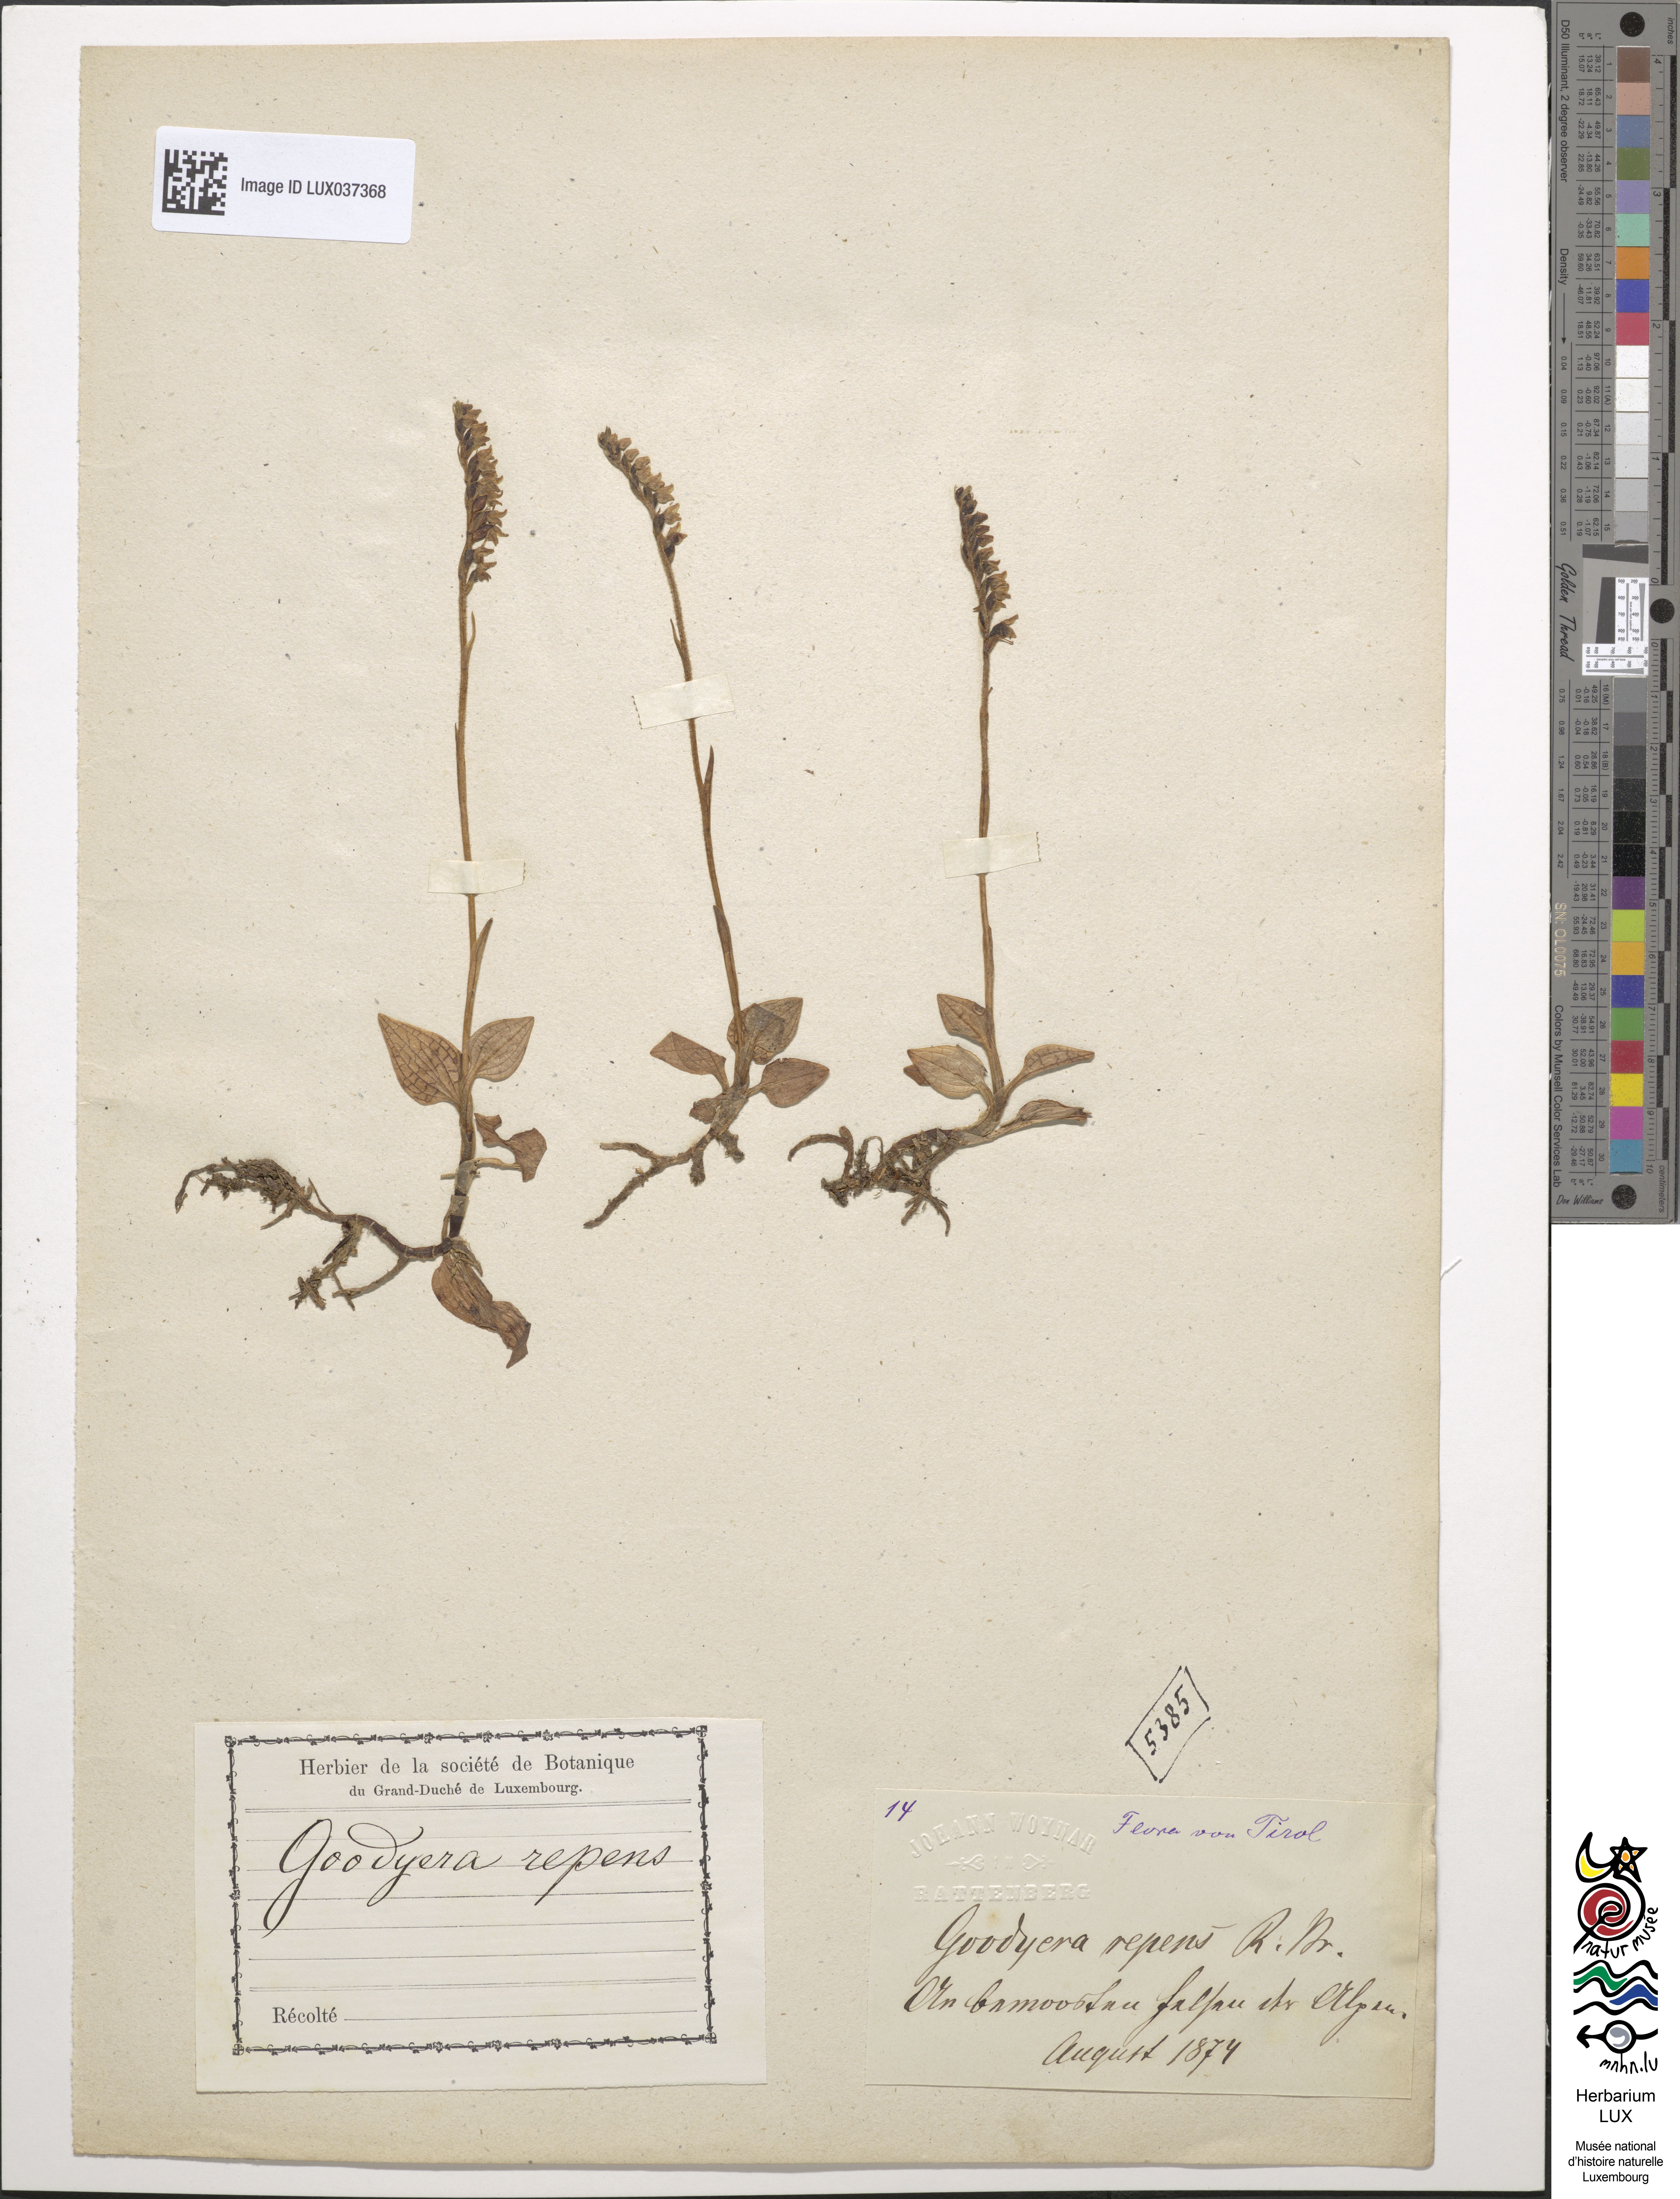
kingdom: Plantae
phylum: Tracheophyta
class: Liliopsida
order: Asparagales
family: Orchidaceae
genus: Goodyera
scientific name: Goodyera repens
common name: Creeping lady's-tresses
